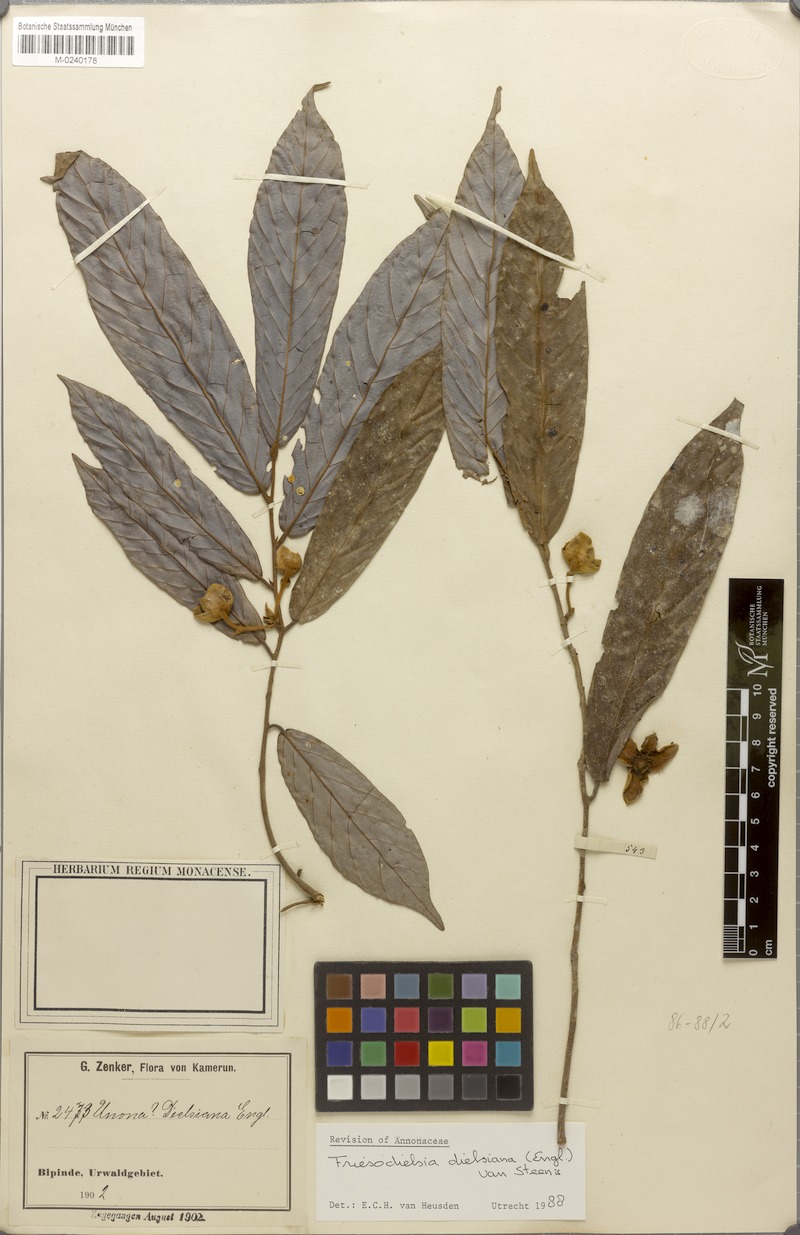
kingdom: Plantae
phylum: Tracheophyta
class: Magnoliopsida
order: Magnoliales
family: Annonaceae
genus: Friesodielsia
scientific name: Friesodielsia dielsiana
